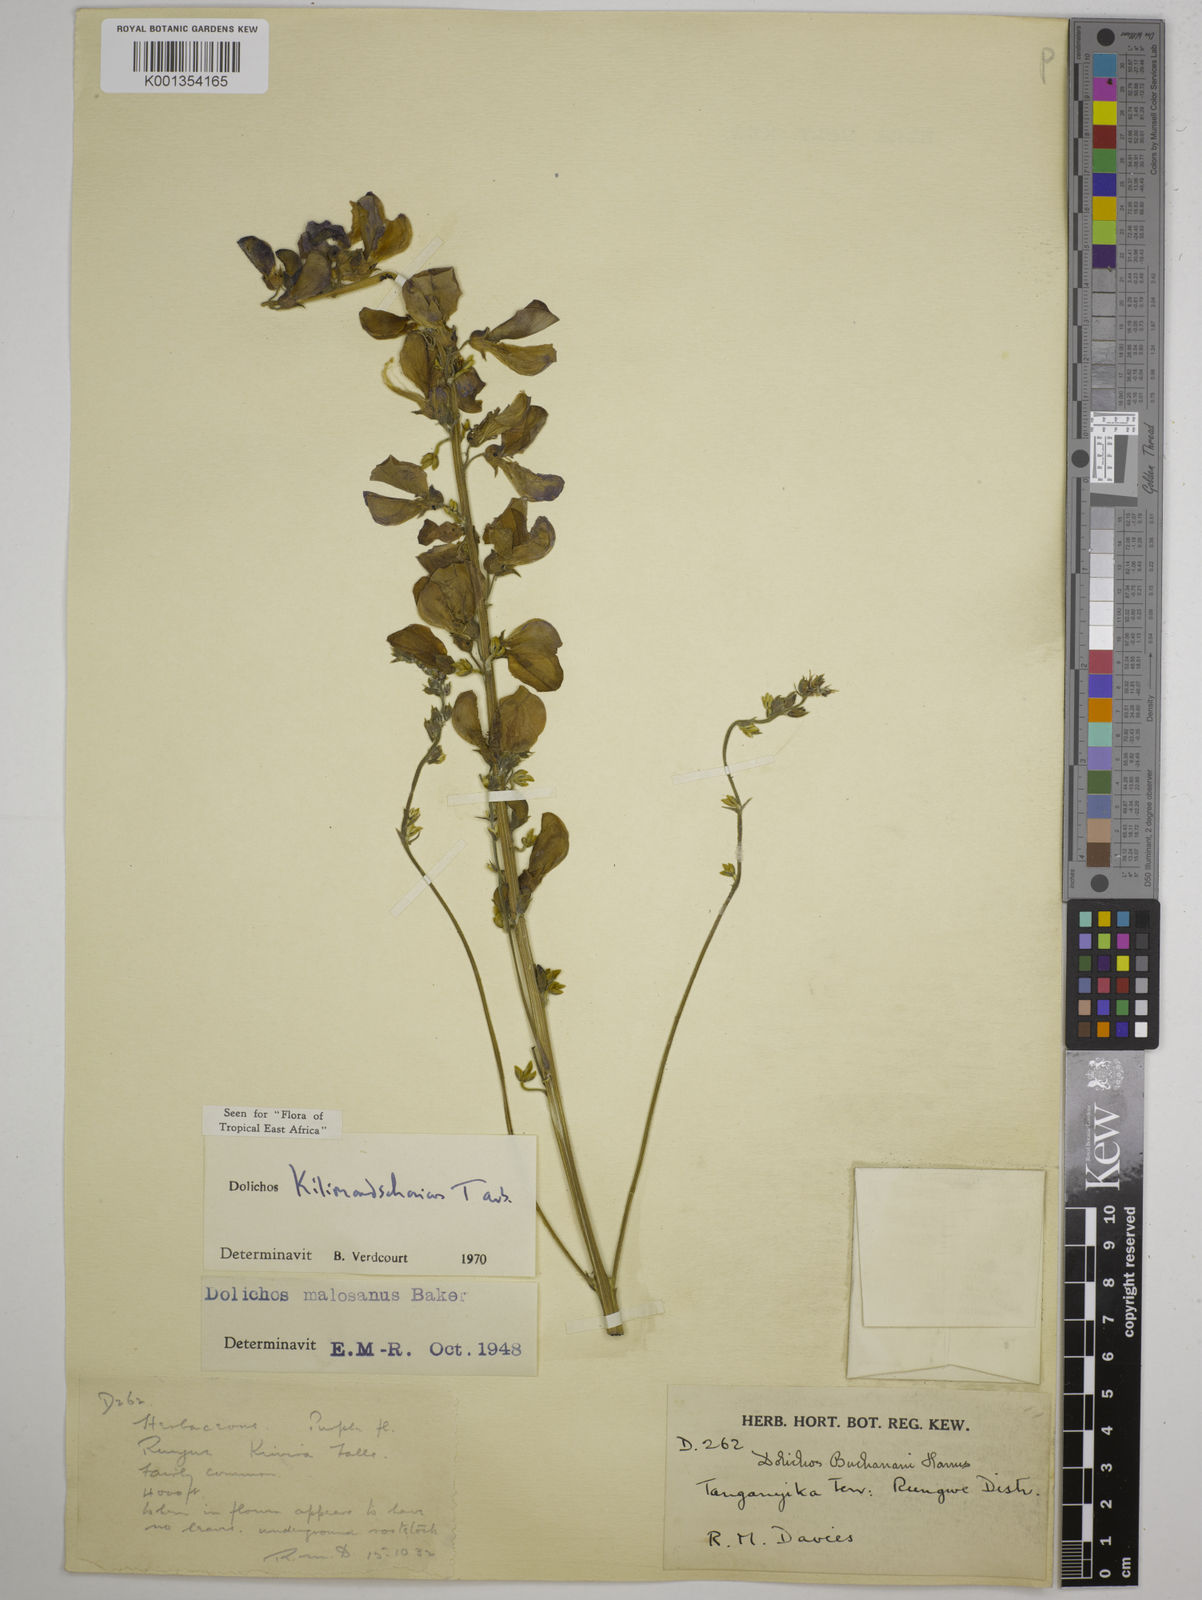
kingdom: Plantae
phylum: Tracheophyta
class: Magnoliopsida
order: Fabales
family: Fabaceae
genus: Dolichos
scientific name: Dolichos kilimandscharicus
